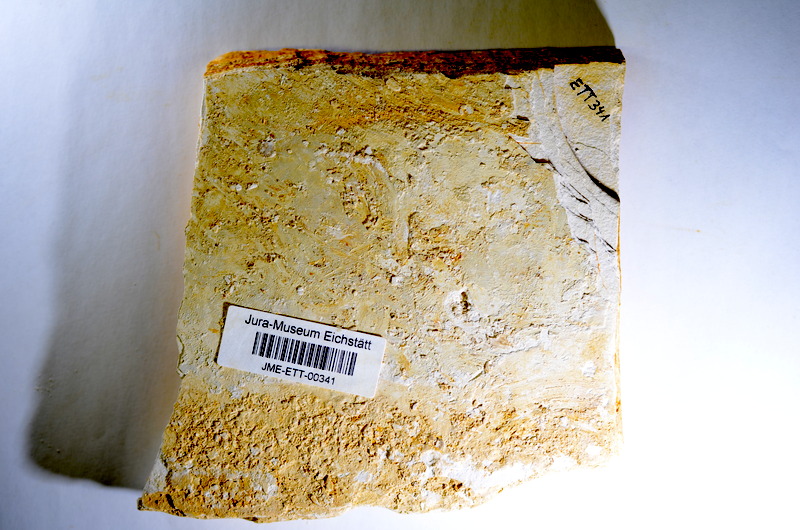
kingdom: Animalia
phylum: Chordata
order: Salmoniformes
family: Orthogonikleithridae
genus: Orthogonikleithrus
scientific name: Orthogonikleithrus hoelli
